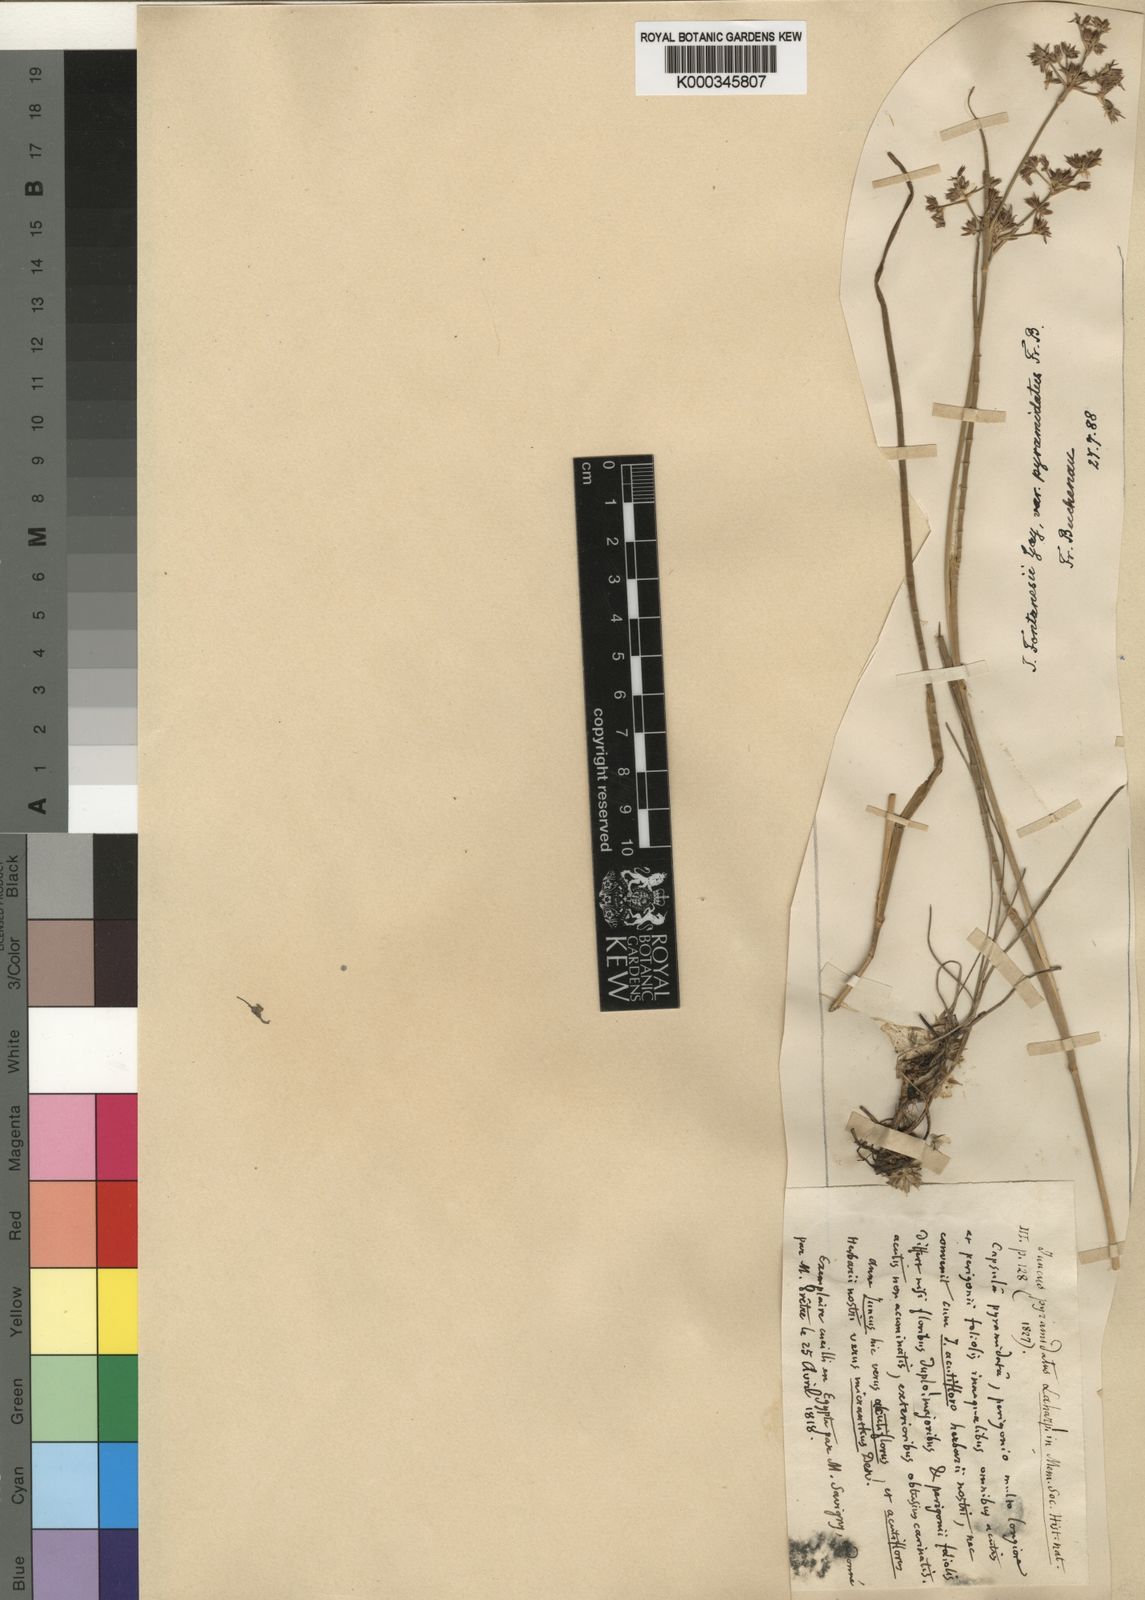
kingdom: Plantae
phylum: Tracheophyta
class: Liliopsida
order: Poales
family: Juncaceae
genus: Juncus
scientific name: Juncus fontanesii
